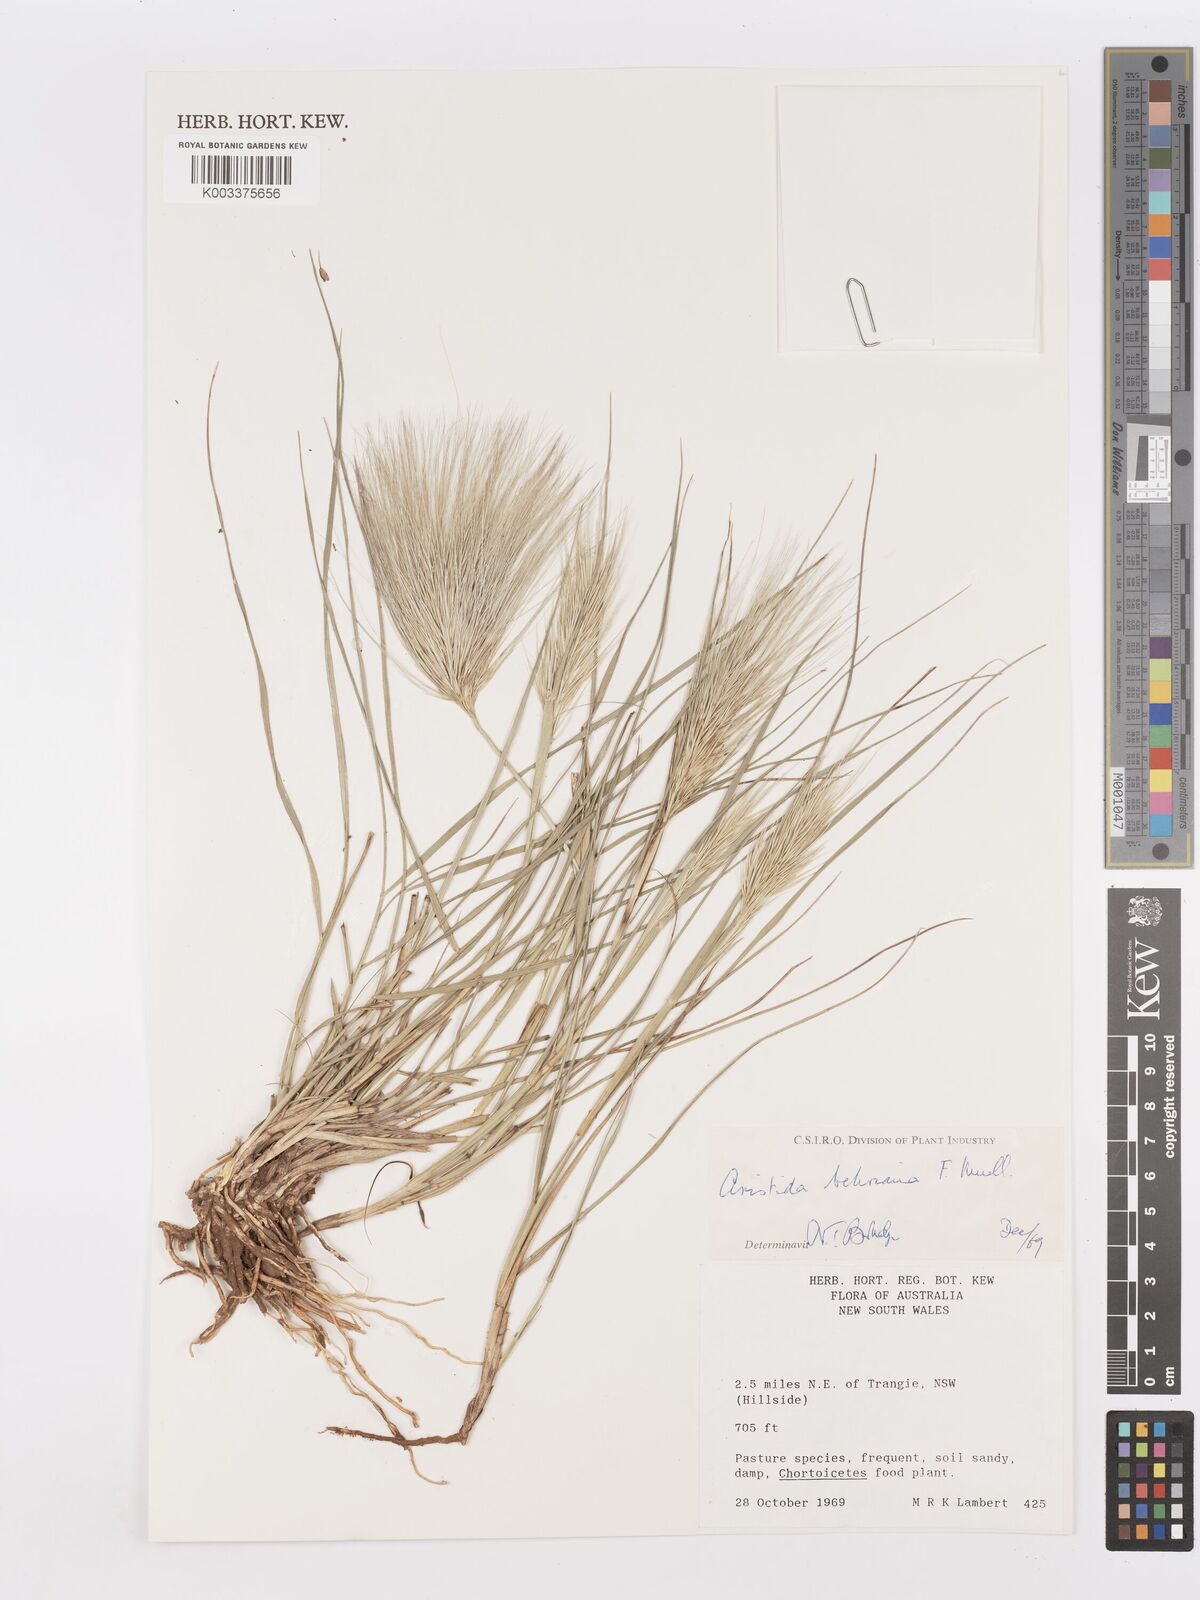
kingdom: Plantae
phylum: Tracheophyta
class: Liliopsida
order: Poales
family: Poaceae
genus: Aristida
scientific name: Aristida behriana
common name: Long-awn wire grass
